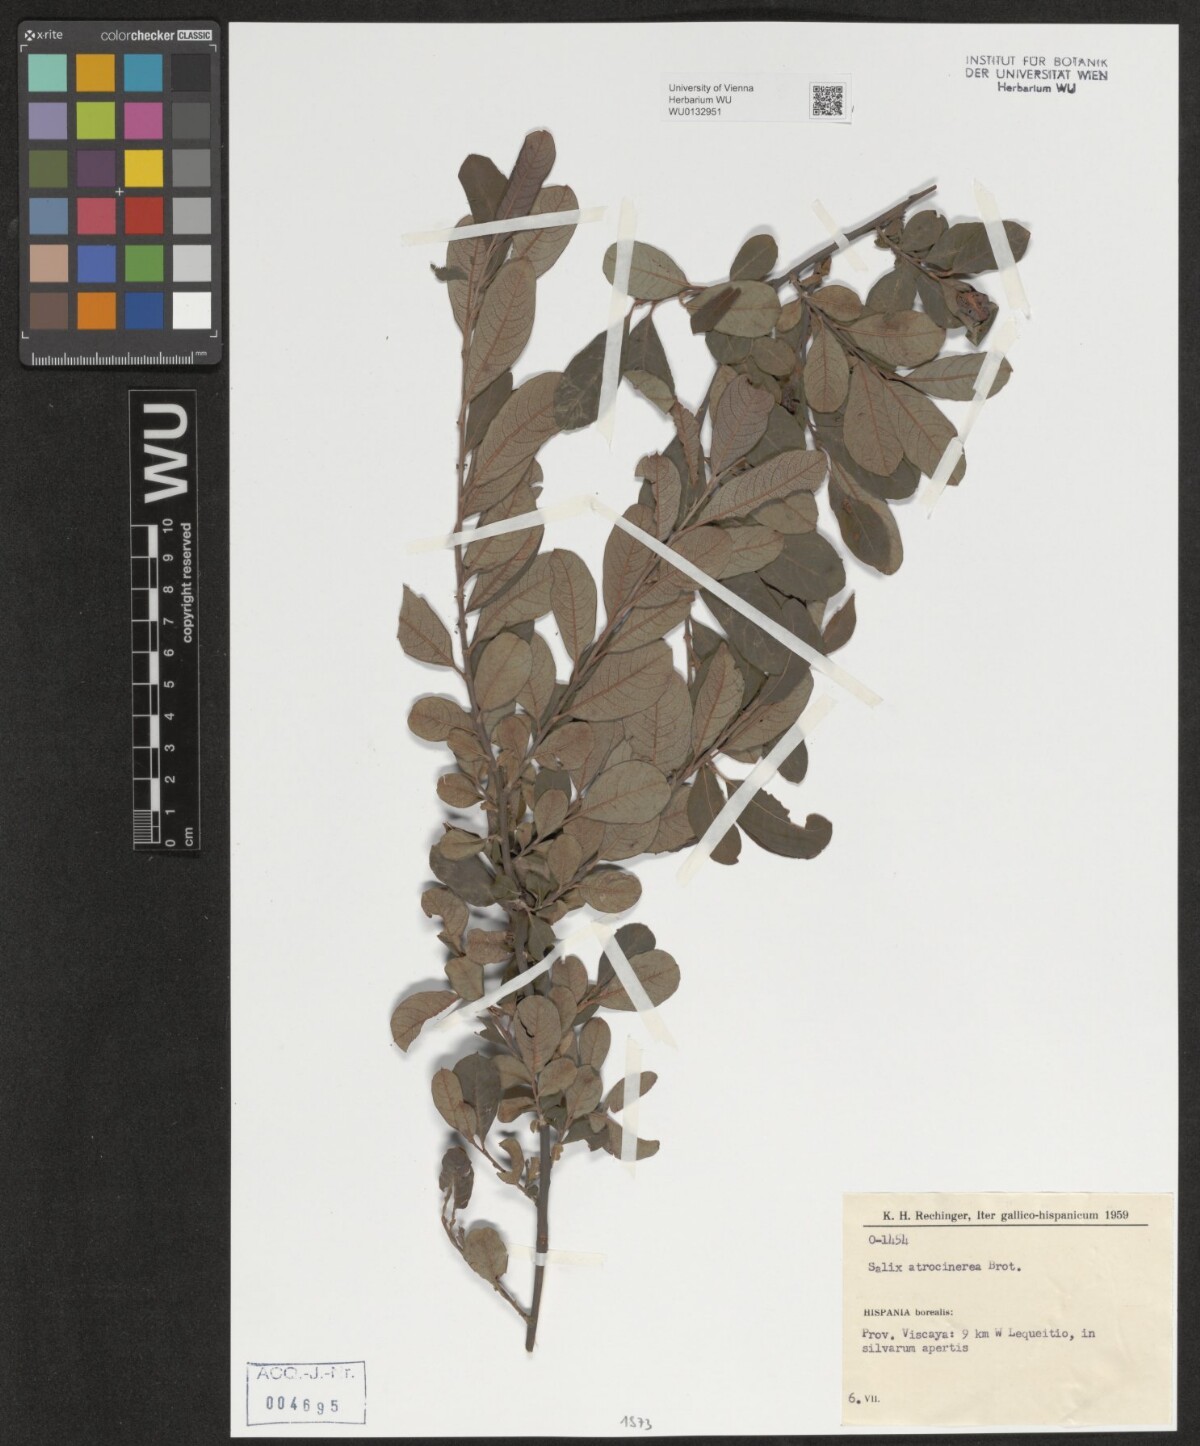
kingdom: Plantae
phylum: Tracheophyta
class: Magnoliopsida
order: Malpighiales
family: Salicaceae
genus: Salix
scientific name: Salix atrocinerea
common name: Rusty willow
